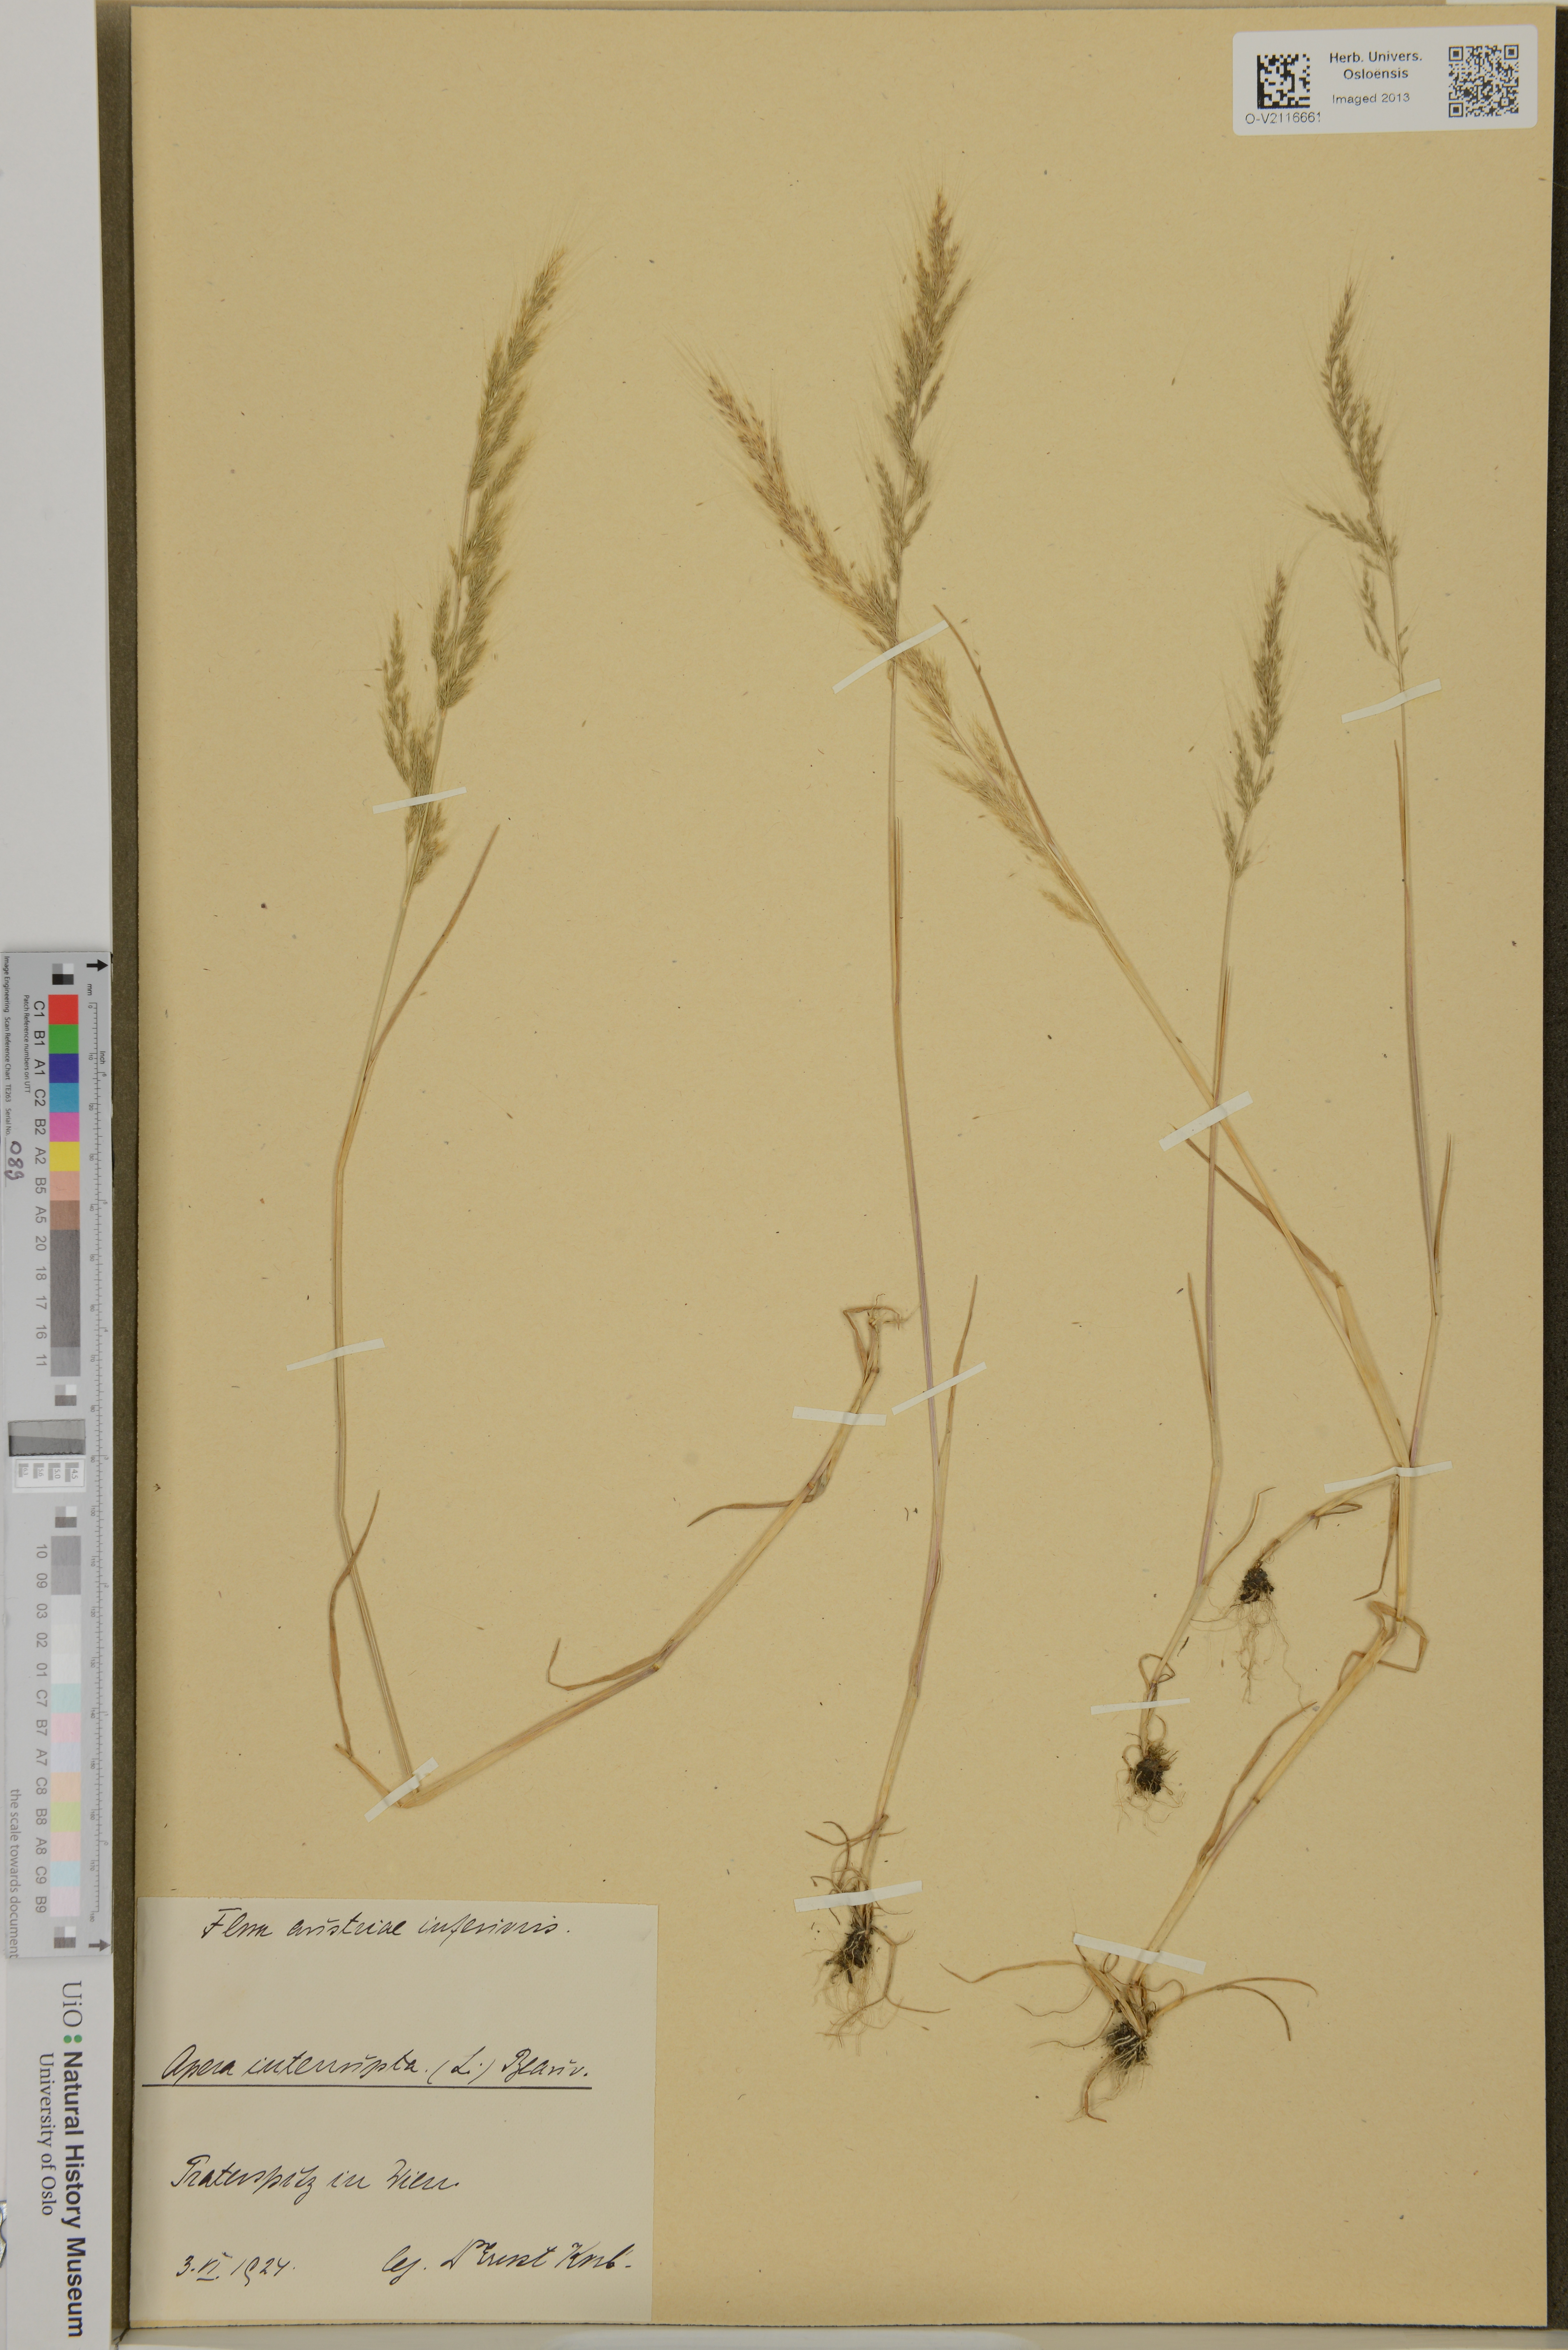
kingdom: Plantae
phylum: Tracheophyta
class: Liliopsida
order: Poales
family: Poaceae
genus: Apera
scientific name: Apera interrupta
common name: Dense silky-bent
